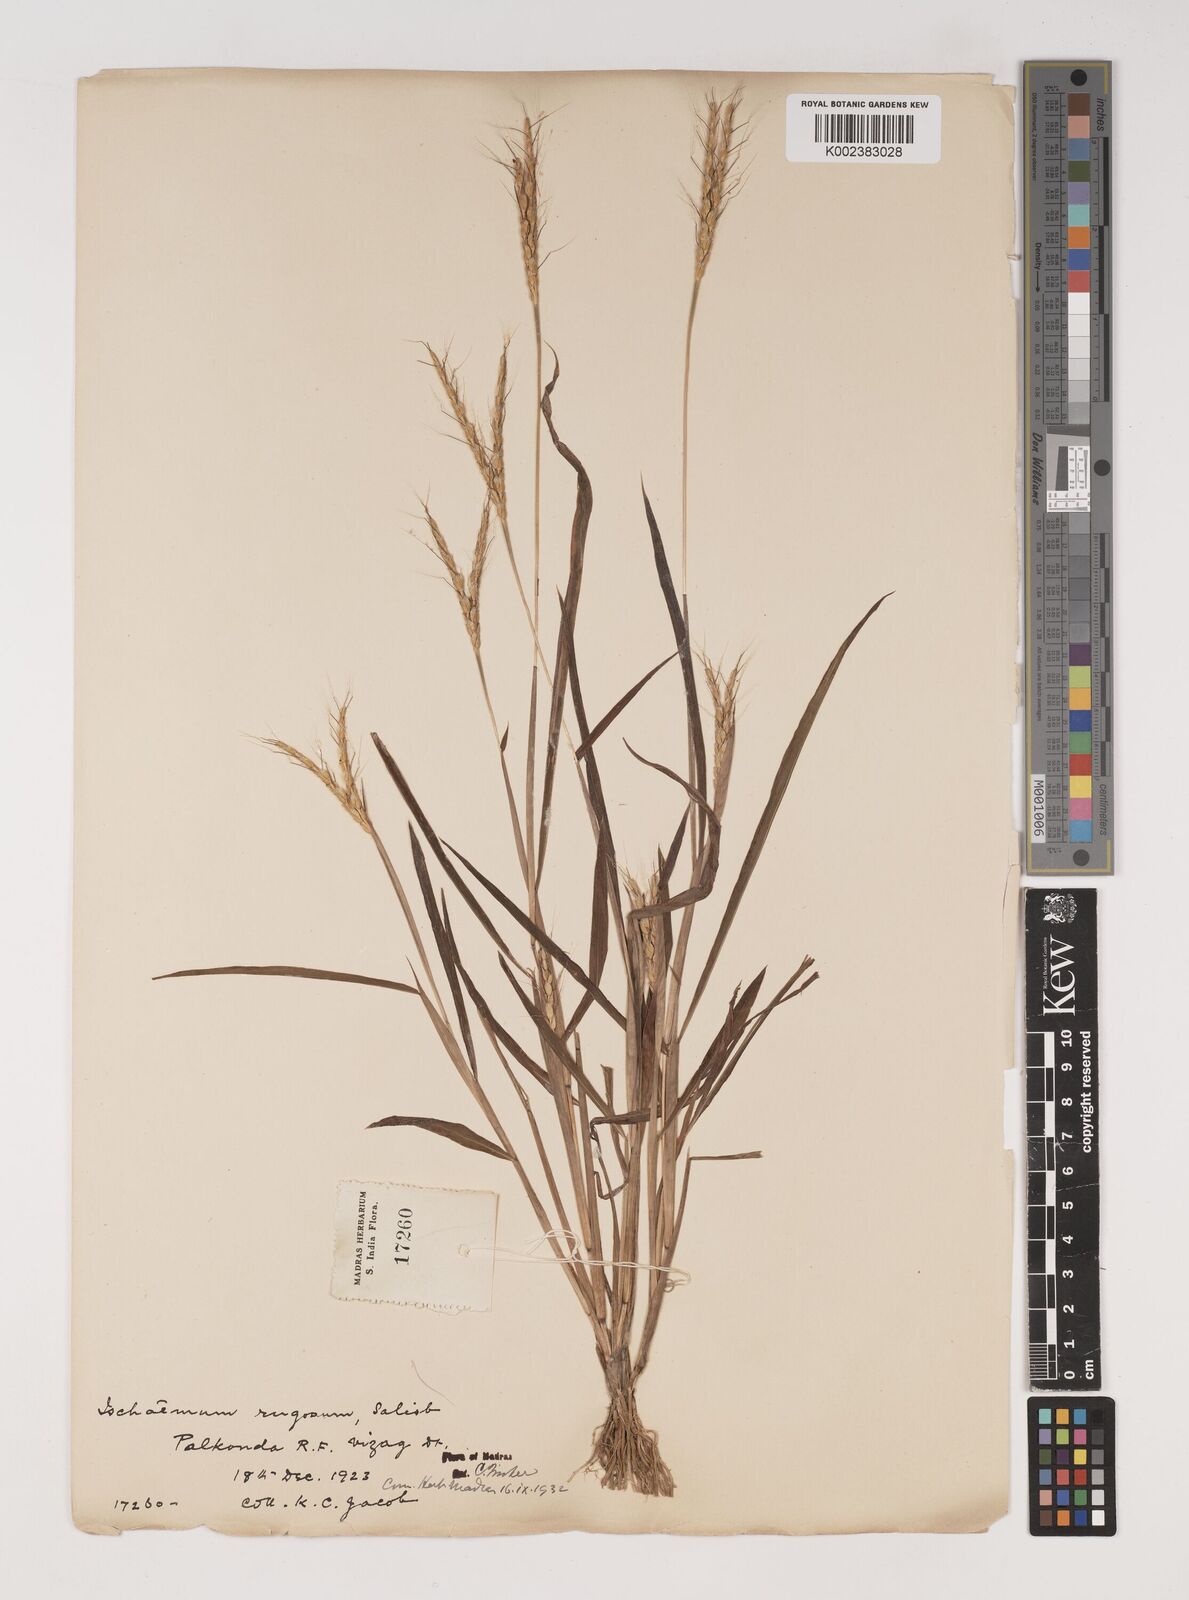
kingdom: Plantae
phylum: Tracheophyta
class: Liliopsida
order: Poales
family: Poaceae
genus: Ischaemum
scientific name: Ischaemum rugosum
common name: Saramatta grass
